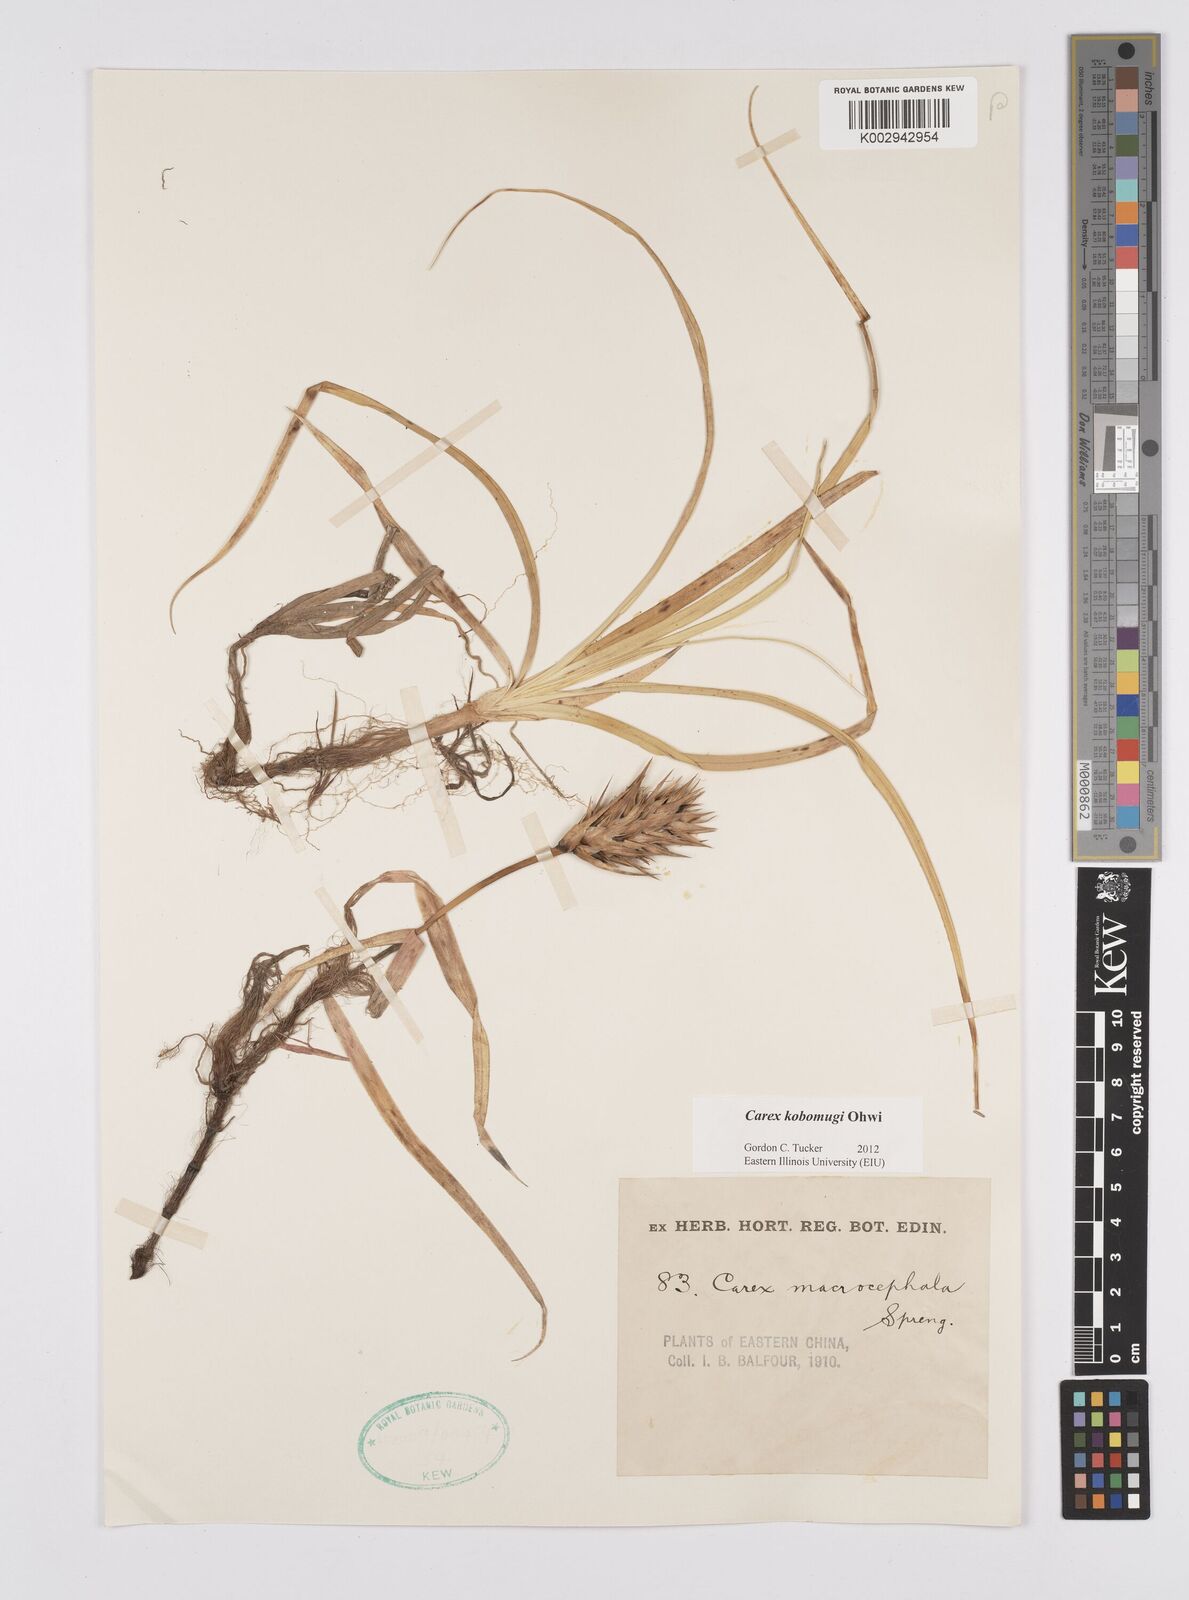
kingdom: Plantae
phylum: Tracheophyta
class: Liliopsida
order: Poales
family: Cyperaceae
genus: Carex
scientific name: Carex kobomugi
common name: Japanese sedge
